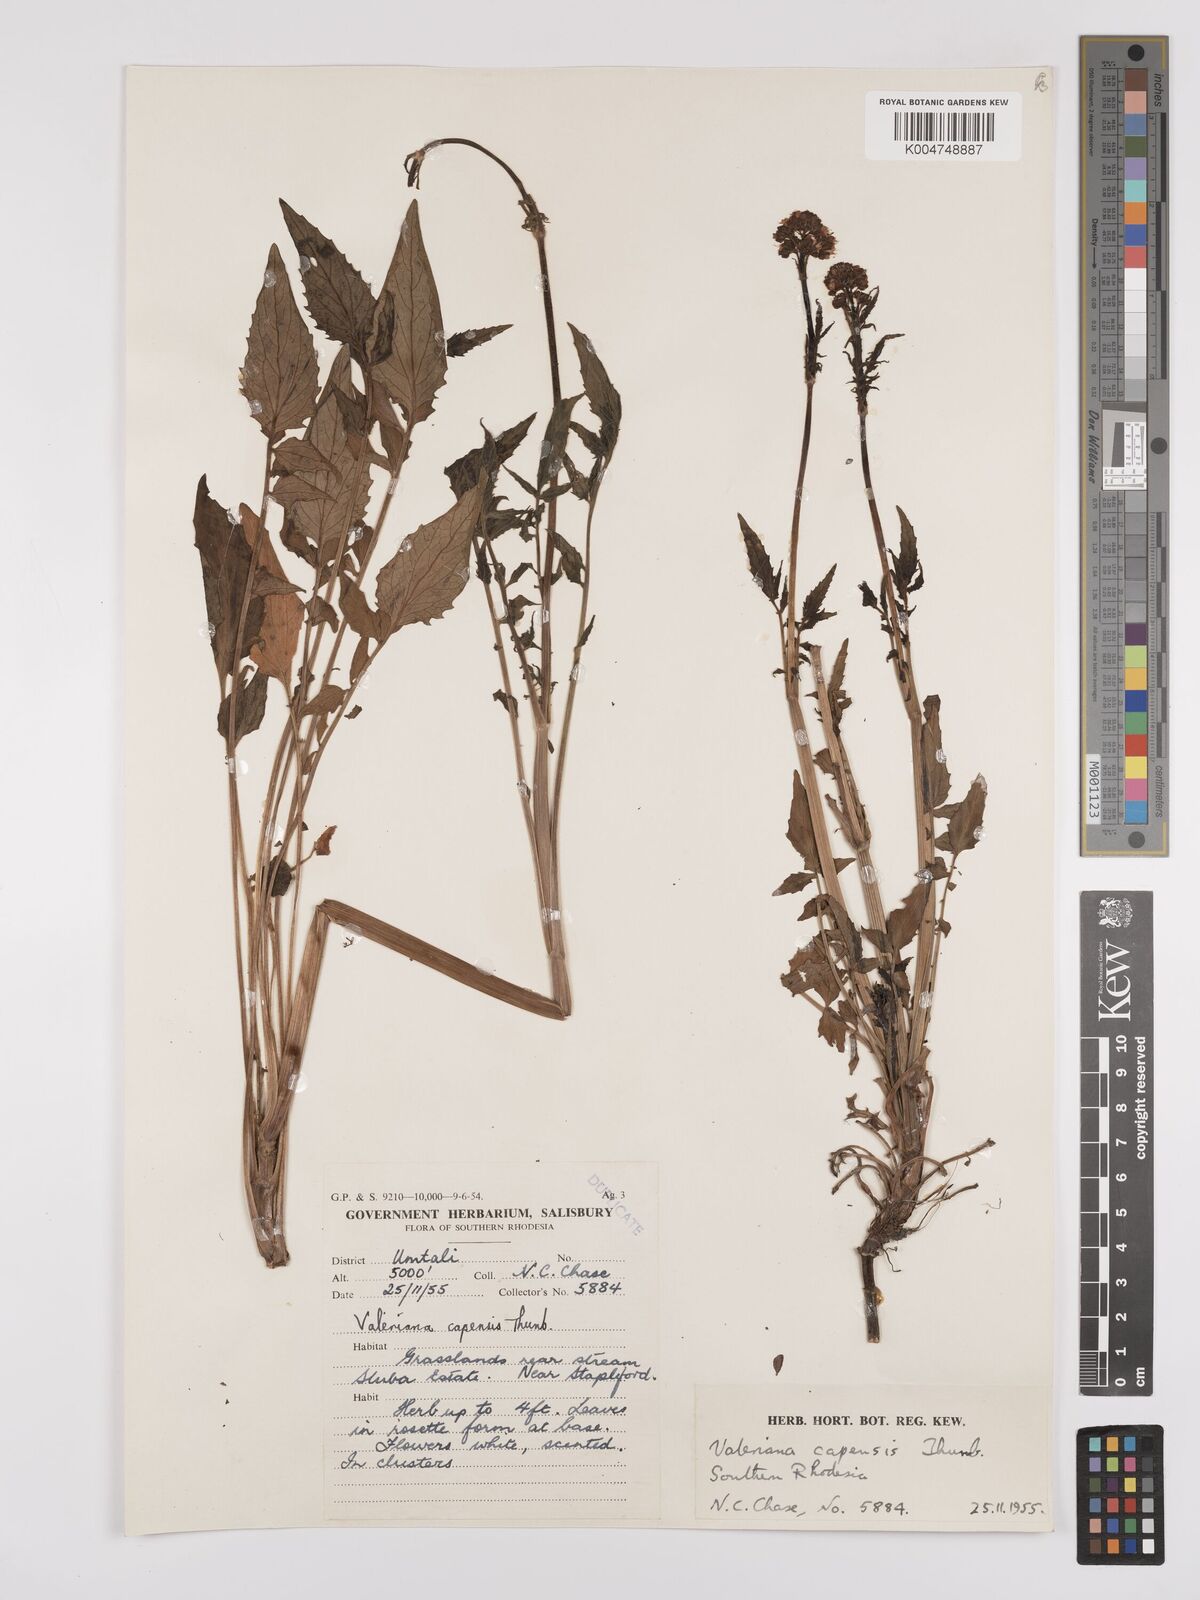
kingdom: Plantae
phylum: Tracheophyta
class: Magnoliopsida
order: Dipsacales
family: Caprifoliaceae
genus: Valeriana
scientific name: Valeriana capensis
